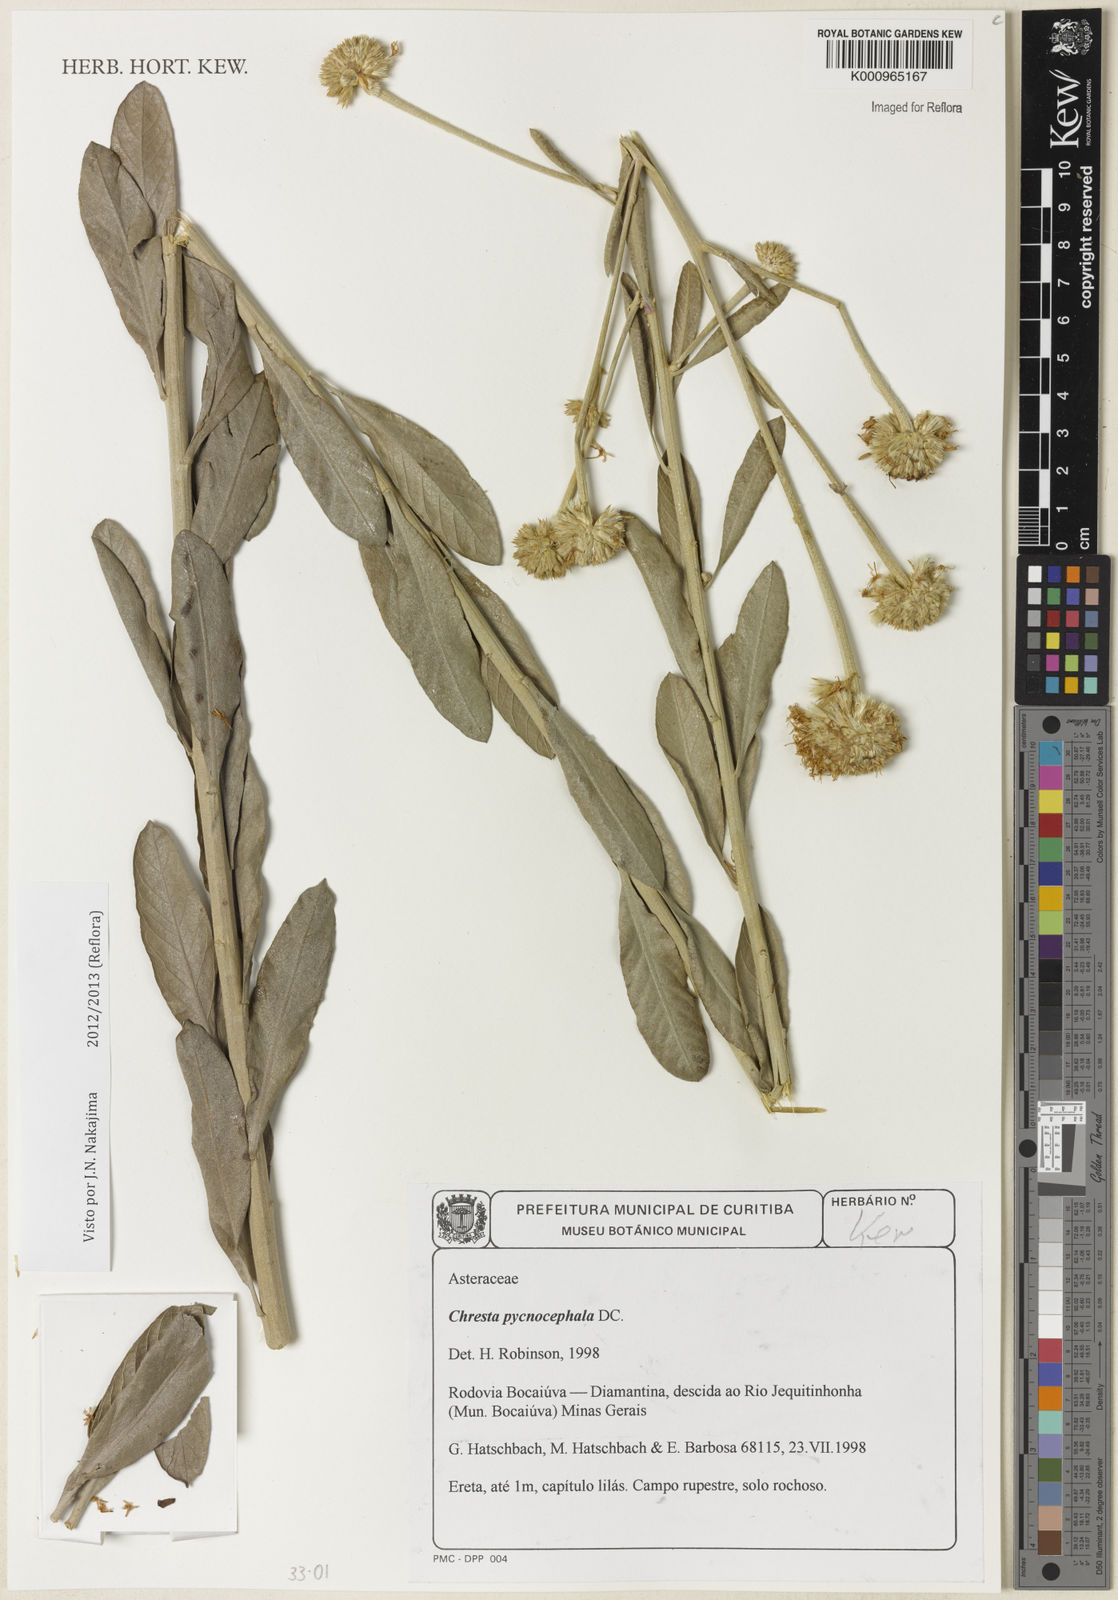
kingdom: Plantae
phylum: Tracheophyta
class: Magnoliopsida
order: Asterales
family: Asteraceae
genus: Chresta
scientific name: Chresta pycnocephala
